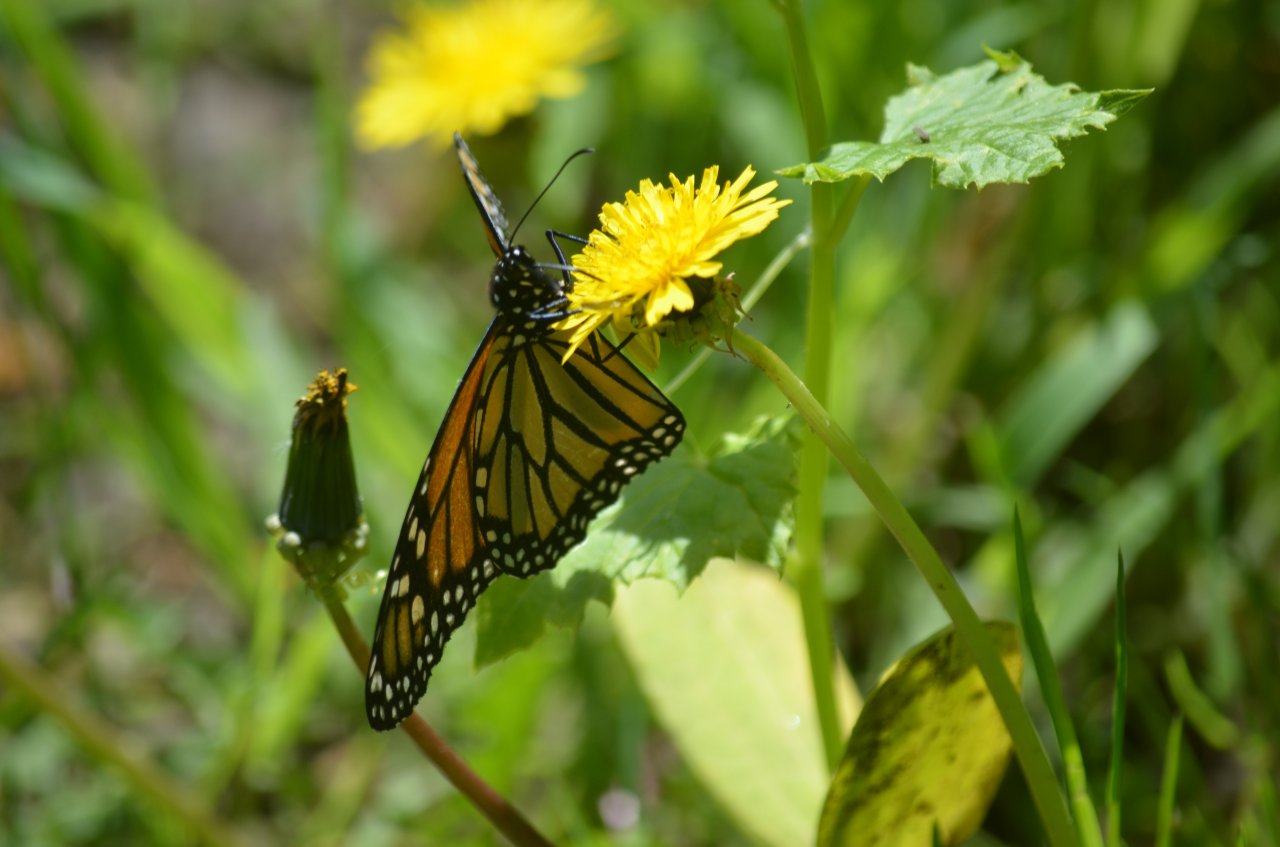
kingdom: Animalia
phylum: Arthropoda
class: Insecta
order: Lepidoptera
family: Nymphalidae
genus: Danaus
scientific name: Danaus plexippus
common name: Monarch
